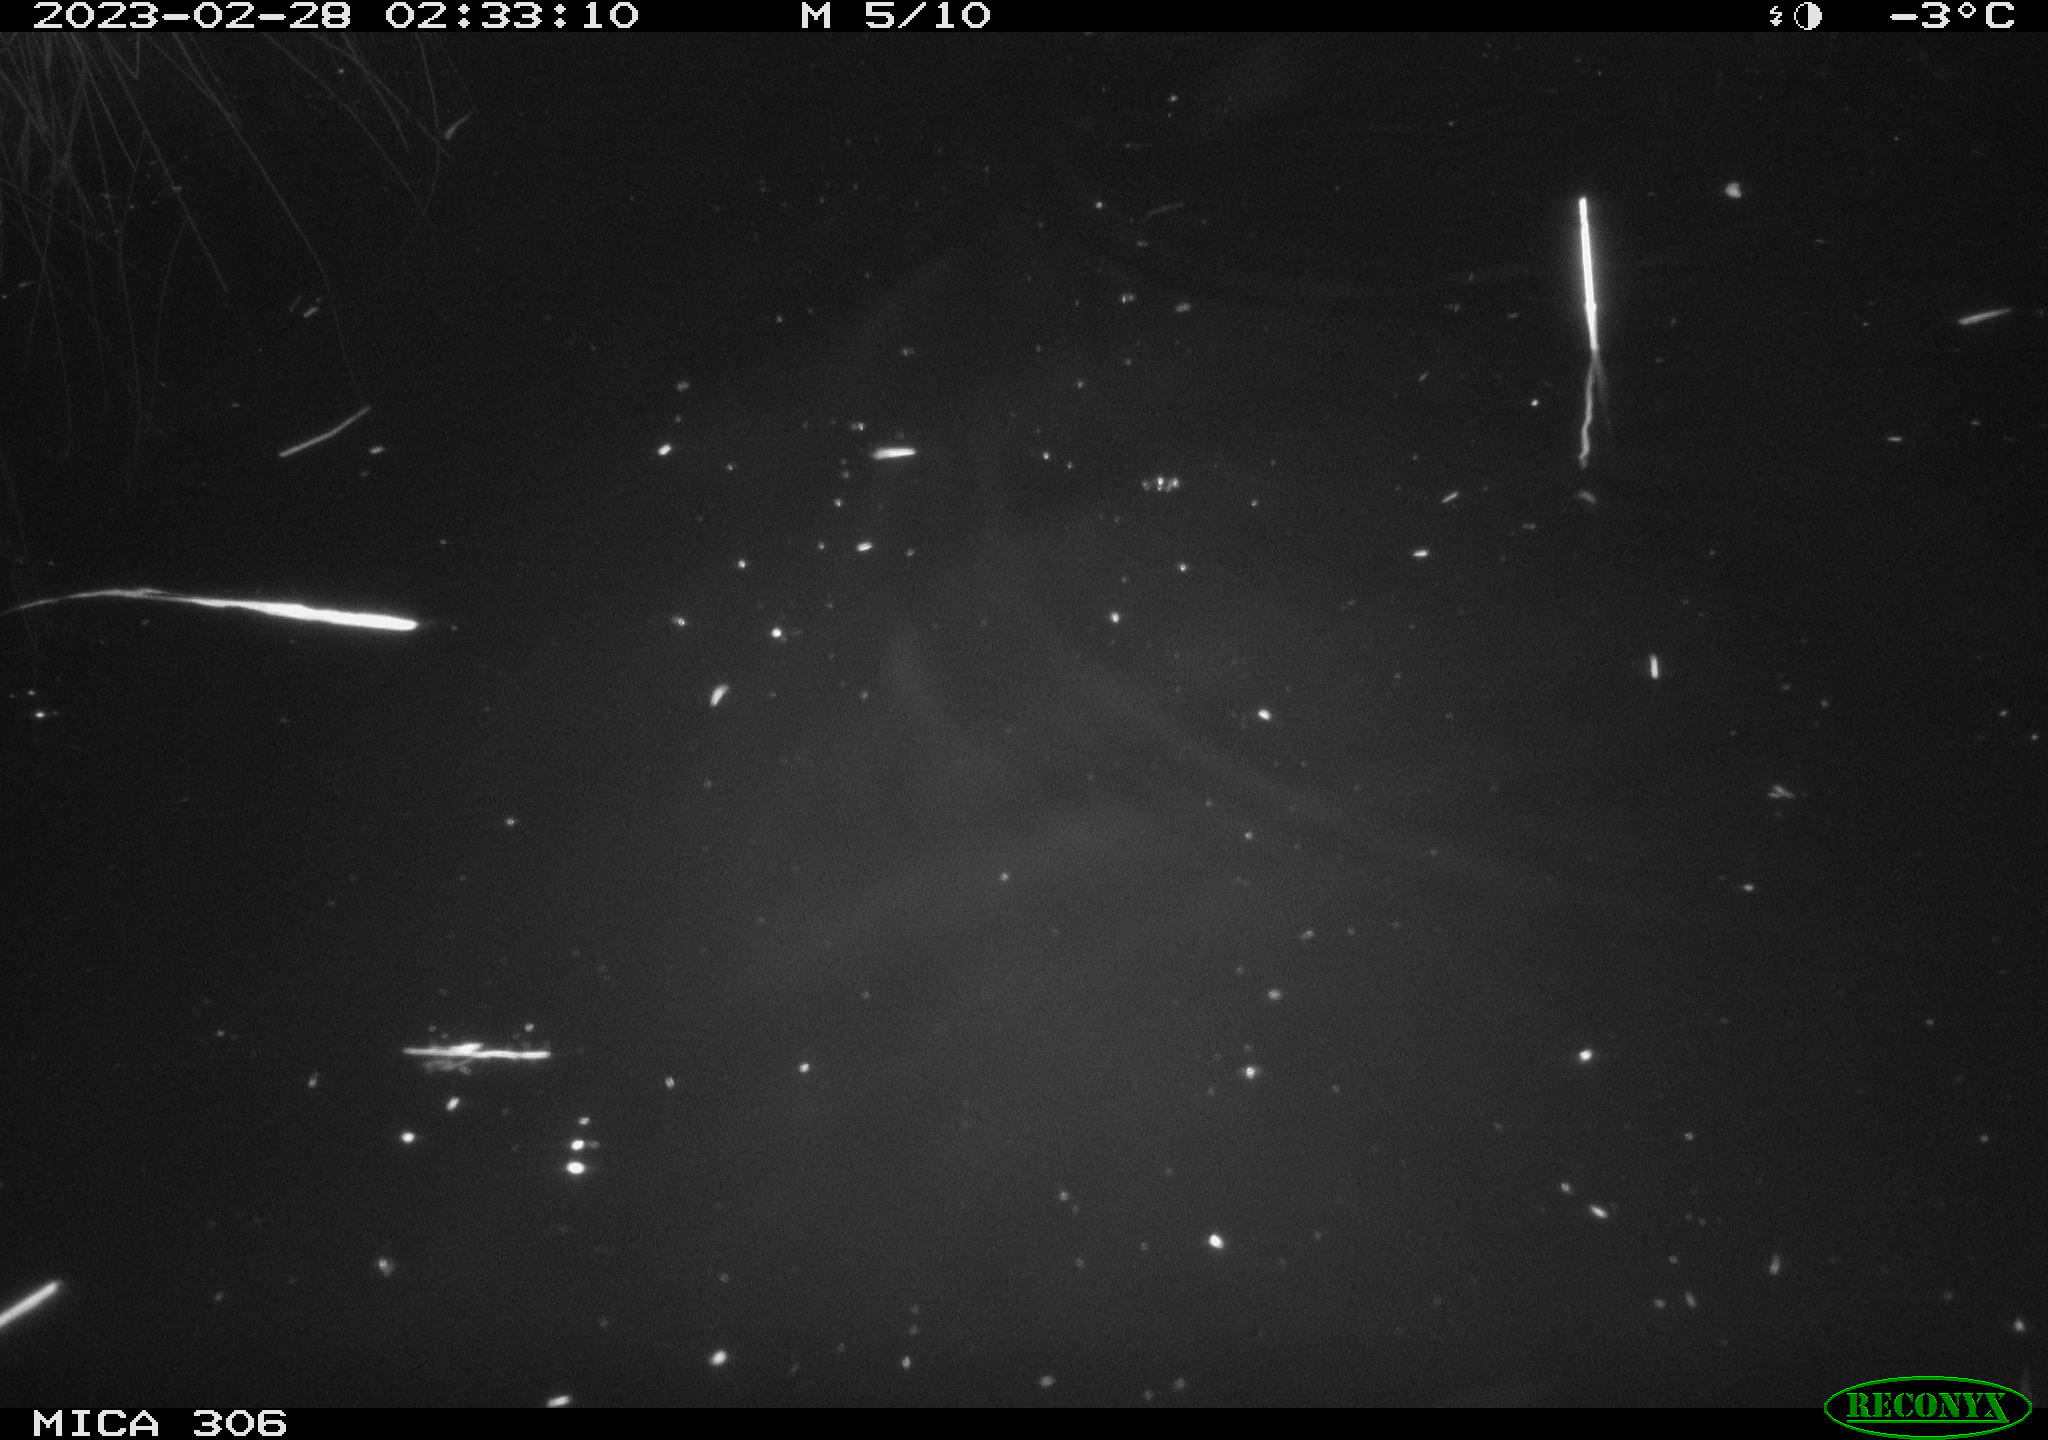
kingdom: Animalia
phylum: Chordata
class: Mammalia
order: Rodentia
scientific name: Rodentia
